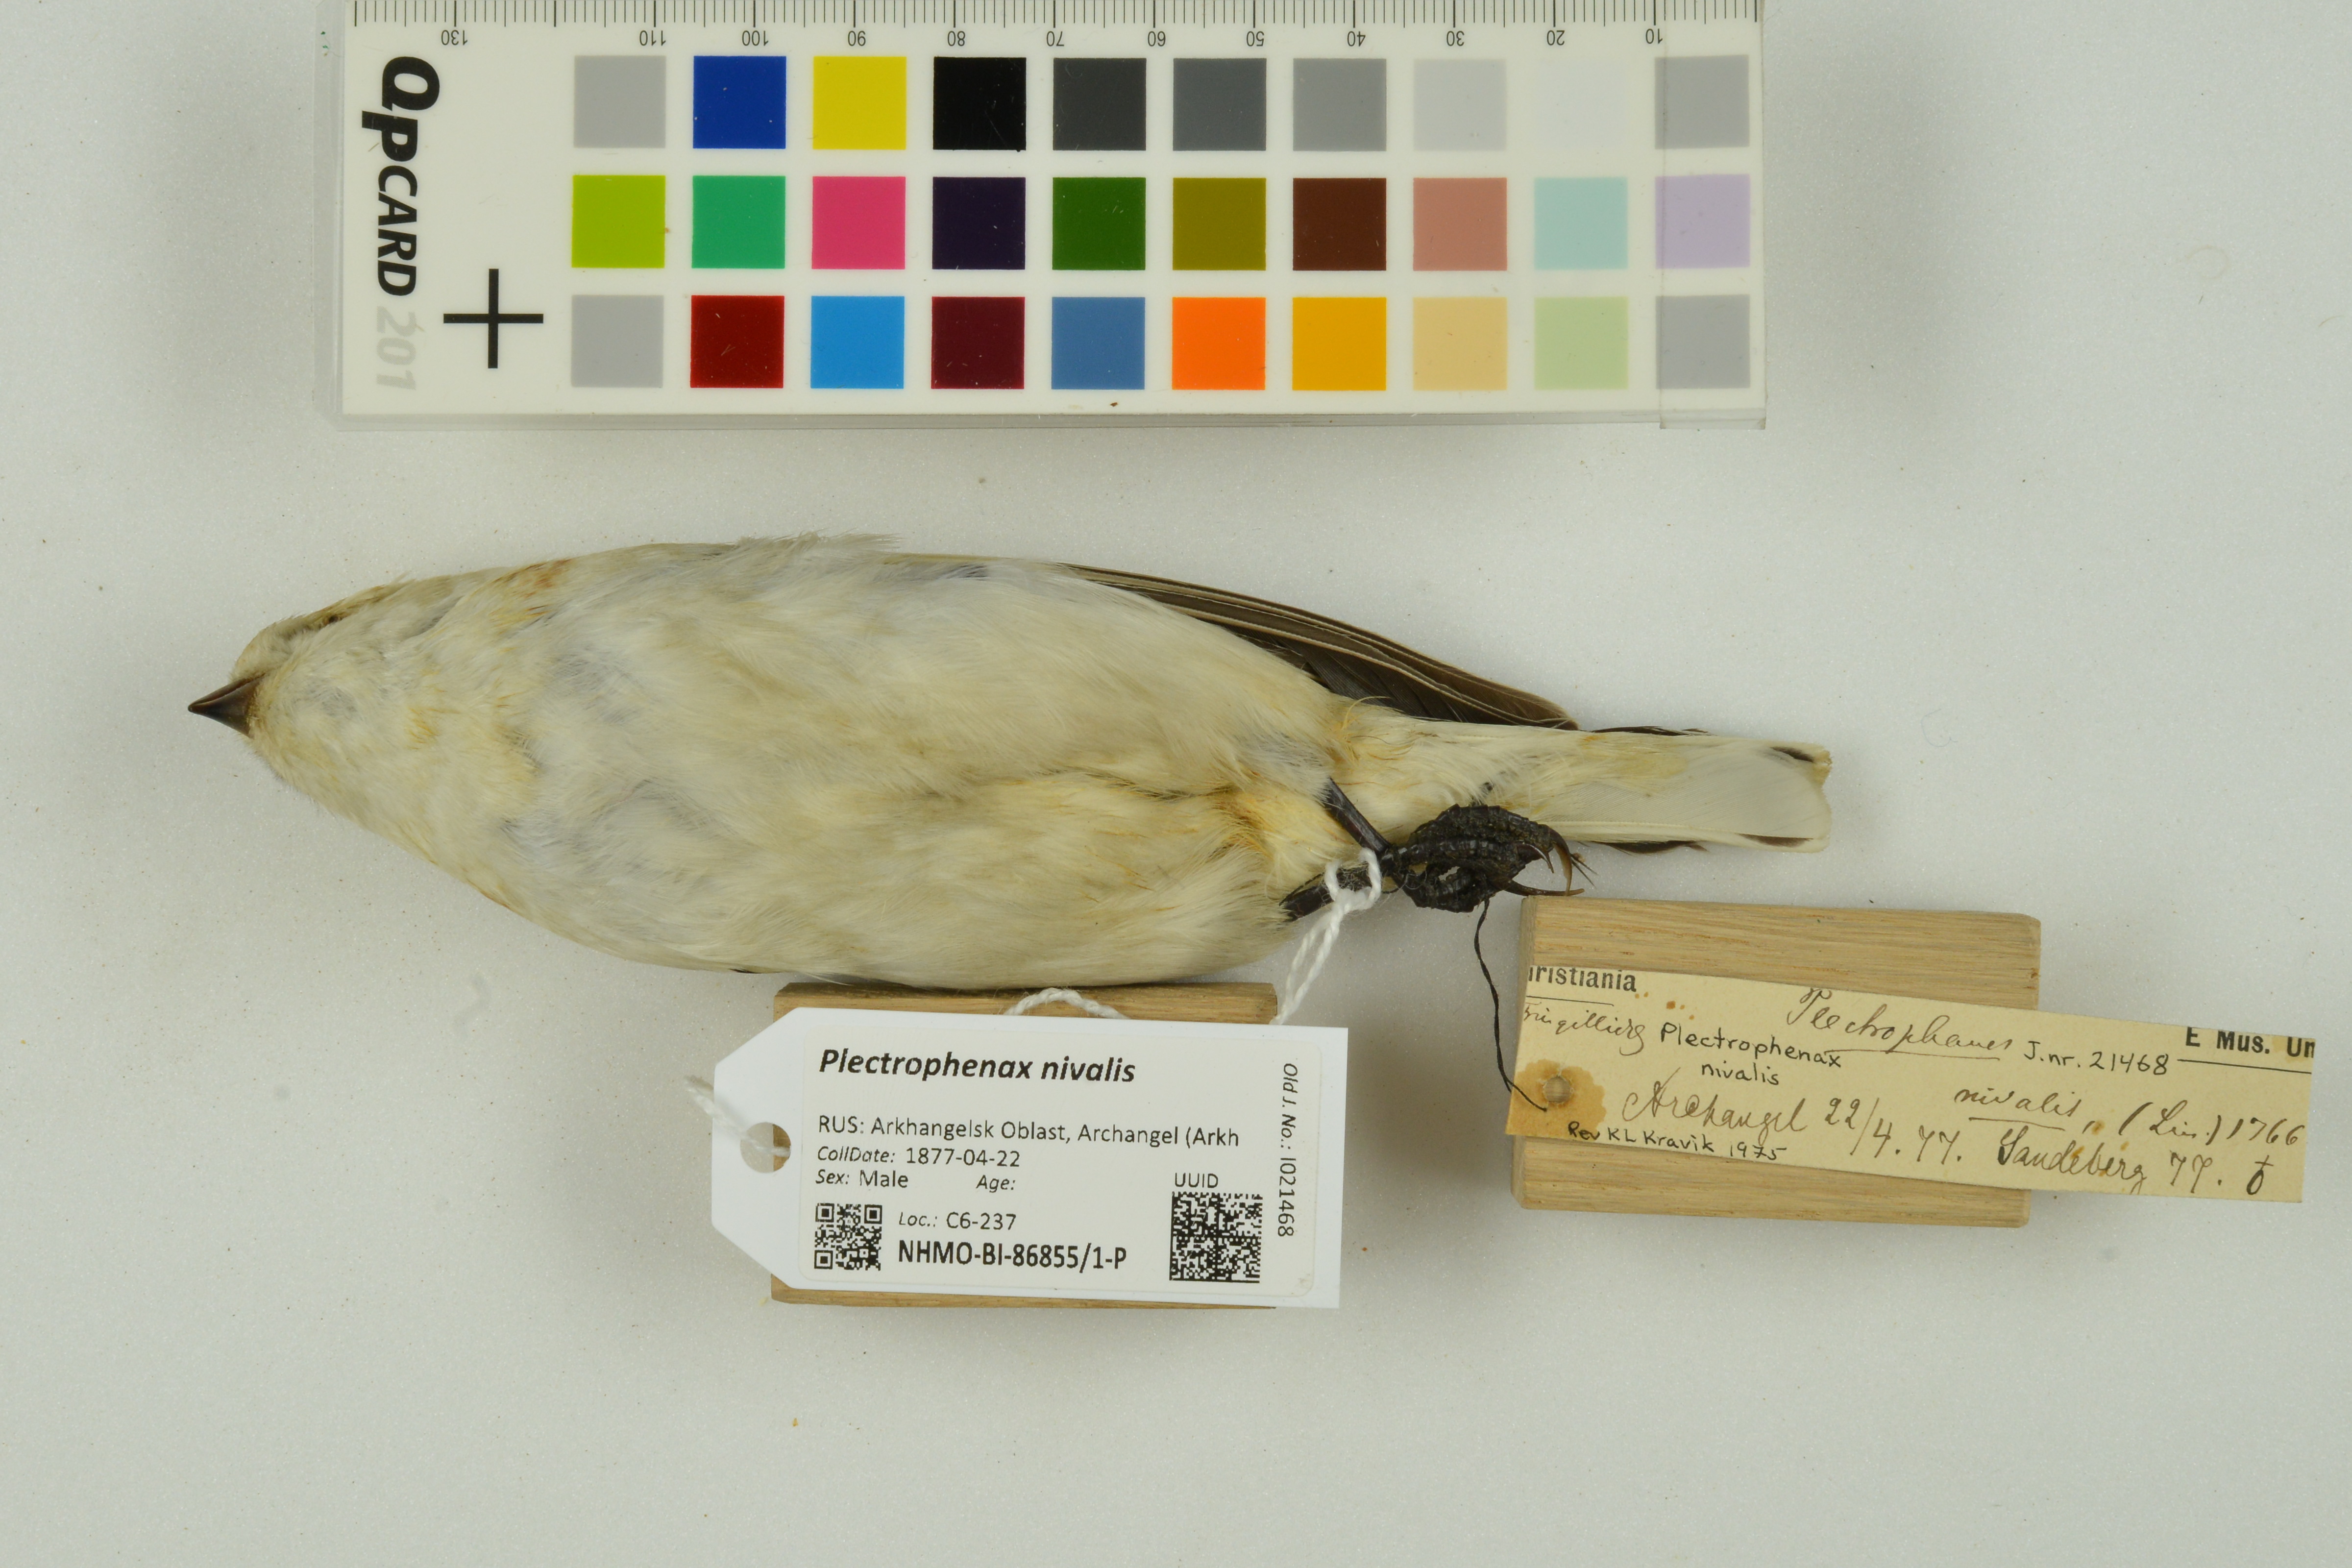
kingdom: Animalia
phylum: Chordata
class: Aves
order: Passeriformes
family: Calcariidae
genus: Plectrophenax
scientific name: Plectrophenax nivalis
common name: Snow bunting
